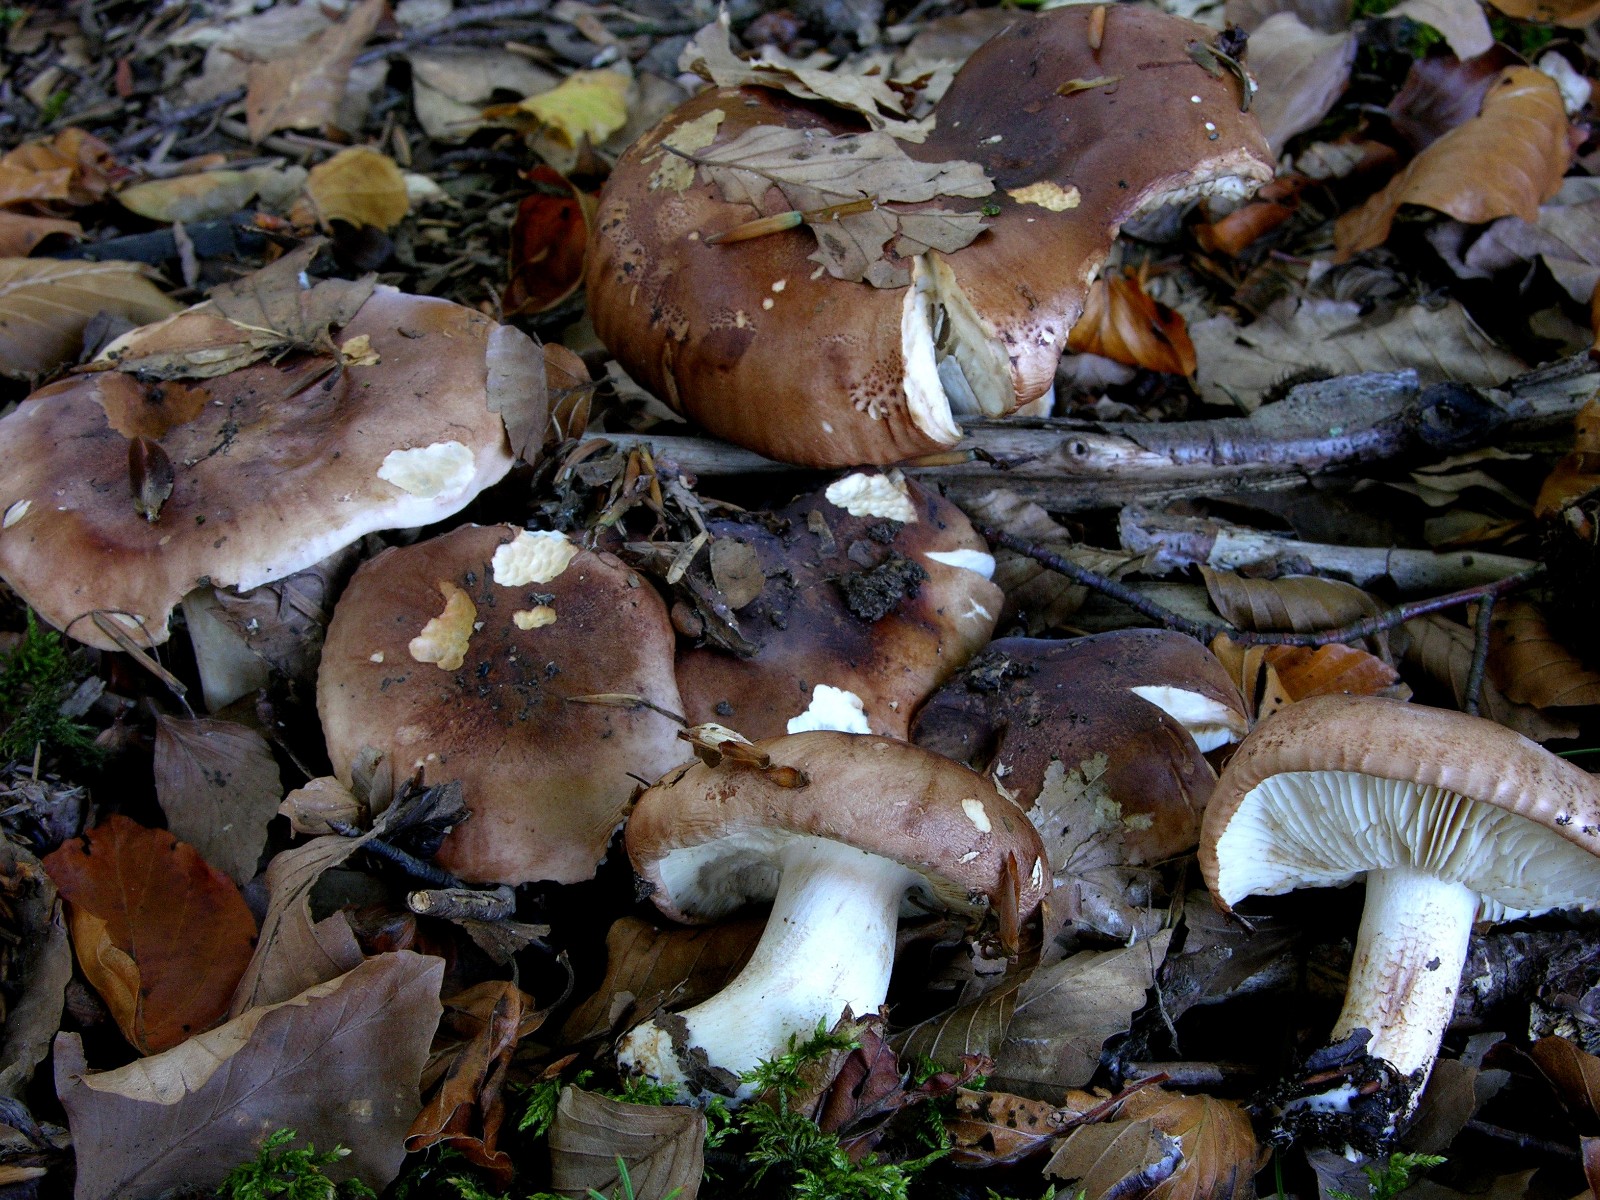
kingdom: Fungi
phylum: Basidiomycota
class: Agaricomycetes
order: Agaricales
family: Tricholomataceae
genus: Tricholoma
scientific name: Tricholoma ustale
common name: sveden ridderhat
